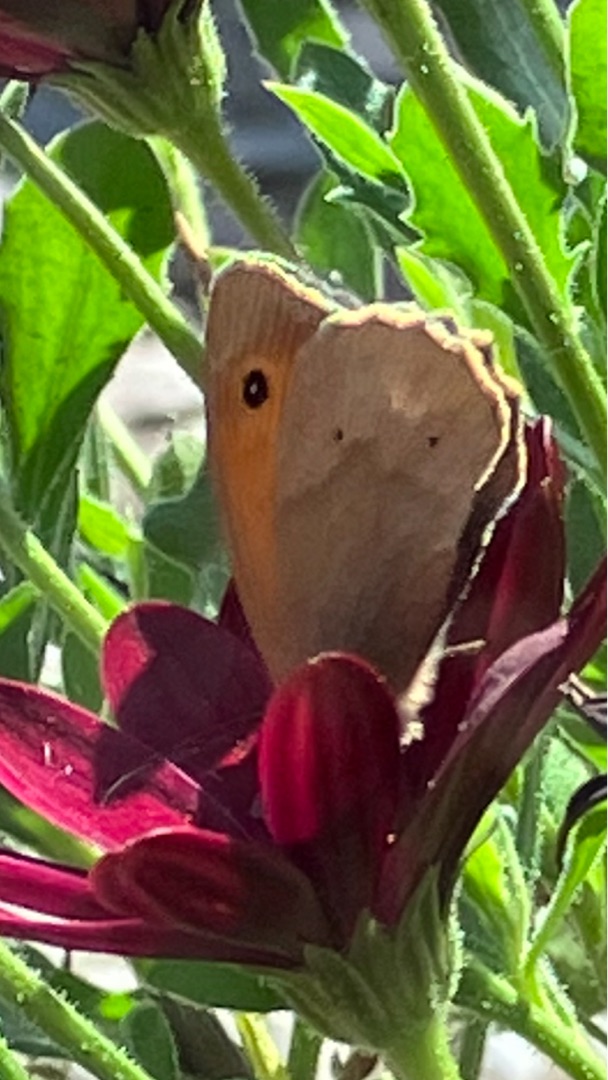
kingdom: Animalia
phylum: Arthropoda
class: Insecta
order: Lepidoptera
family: Nymphalidae
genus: Maniola
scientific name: Maniola jurtina
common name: Græsrandøje
